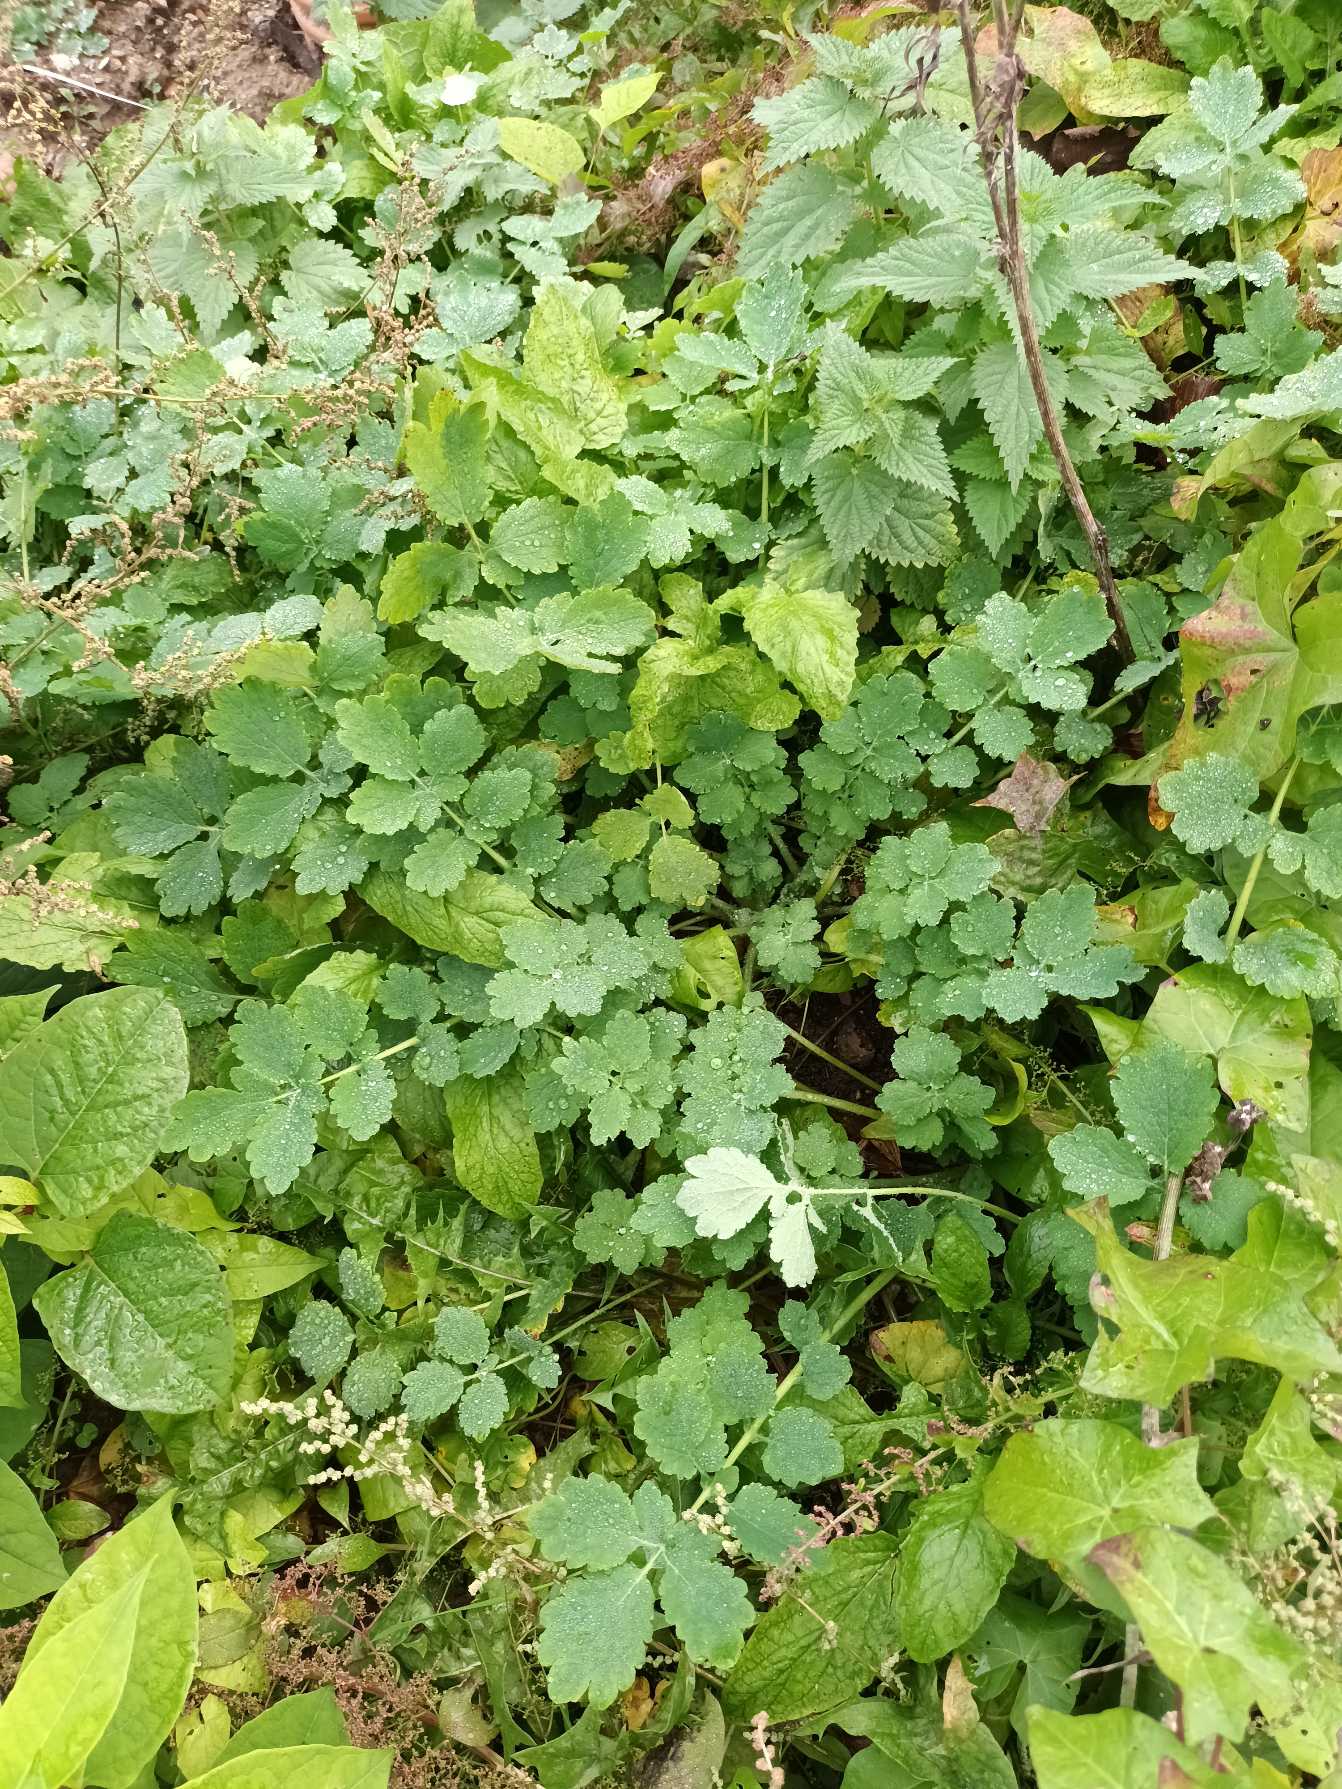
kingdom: Plantae
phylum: Tracheophyta
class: Magnoliopsida
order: Ranunculales
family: Papaveraceae
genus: Chelidonium
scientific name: Chelidonium majus
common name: Svaleurt
